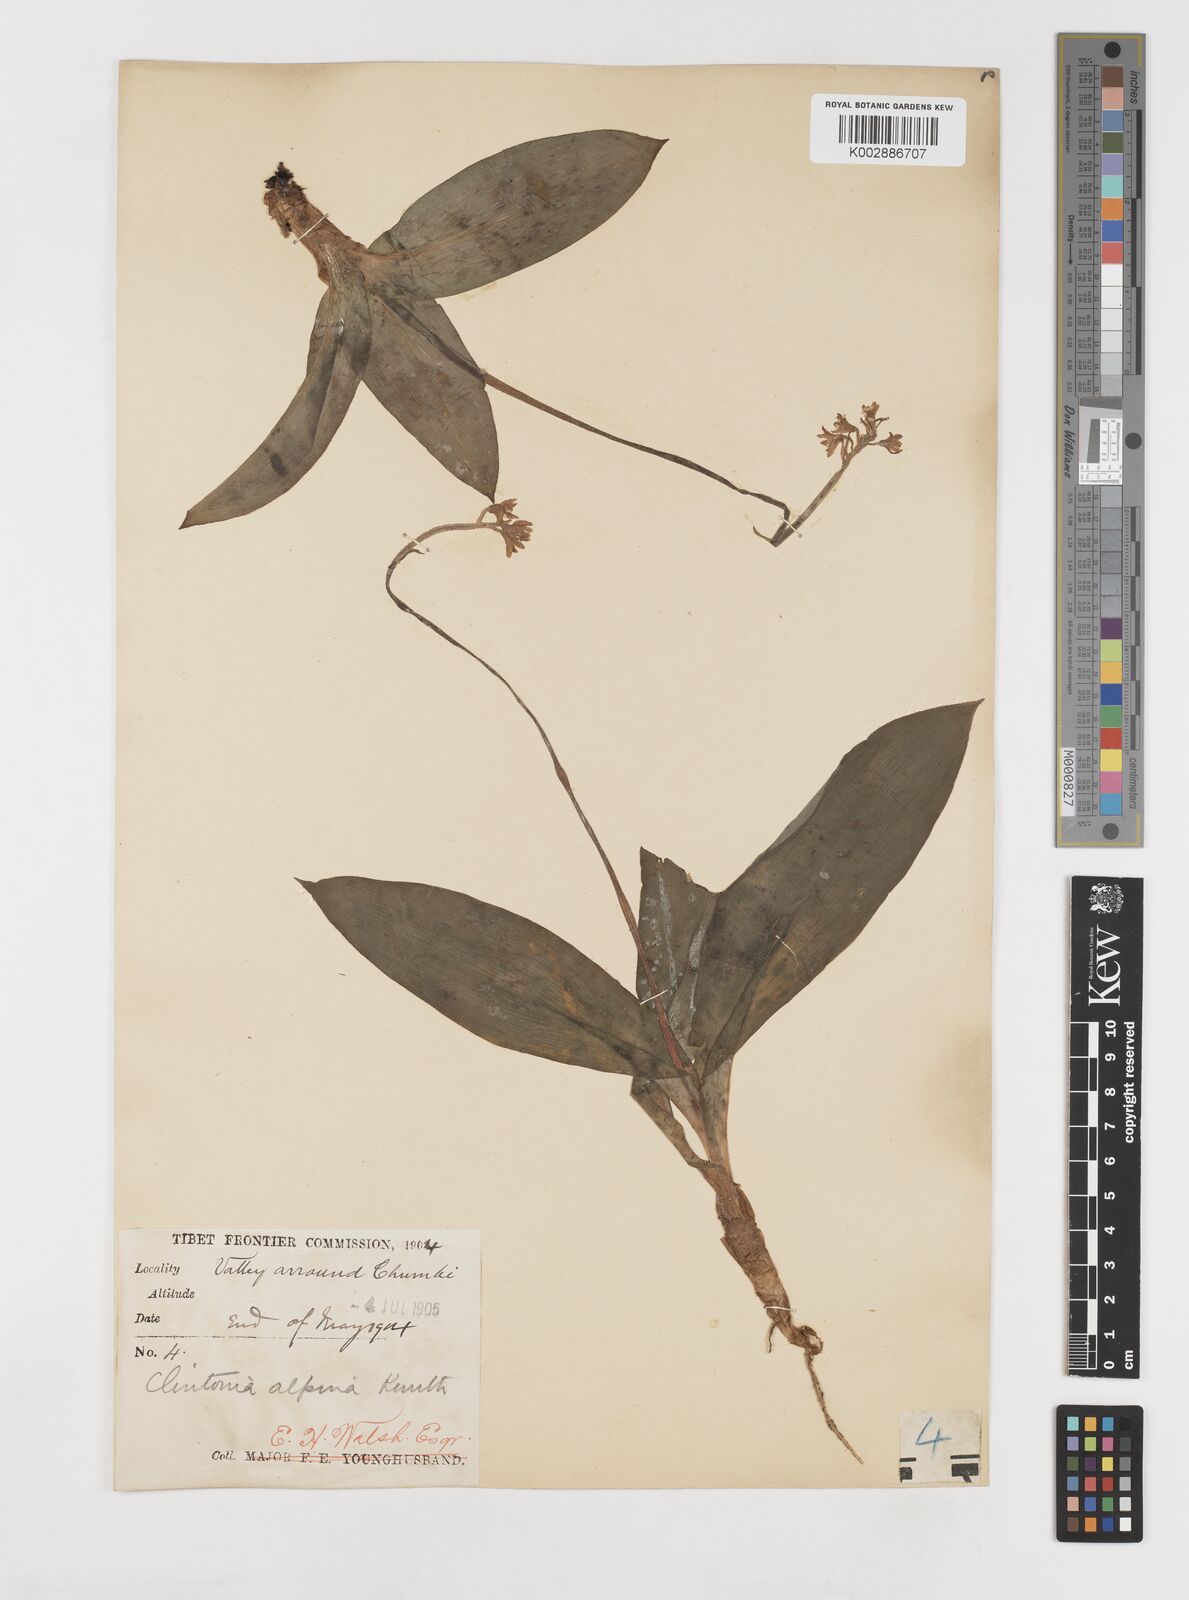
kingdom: Plantae
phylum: Tracheophyta
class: Liliopsida
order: Liliales
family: Liliaceae
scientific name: Liliaceae
